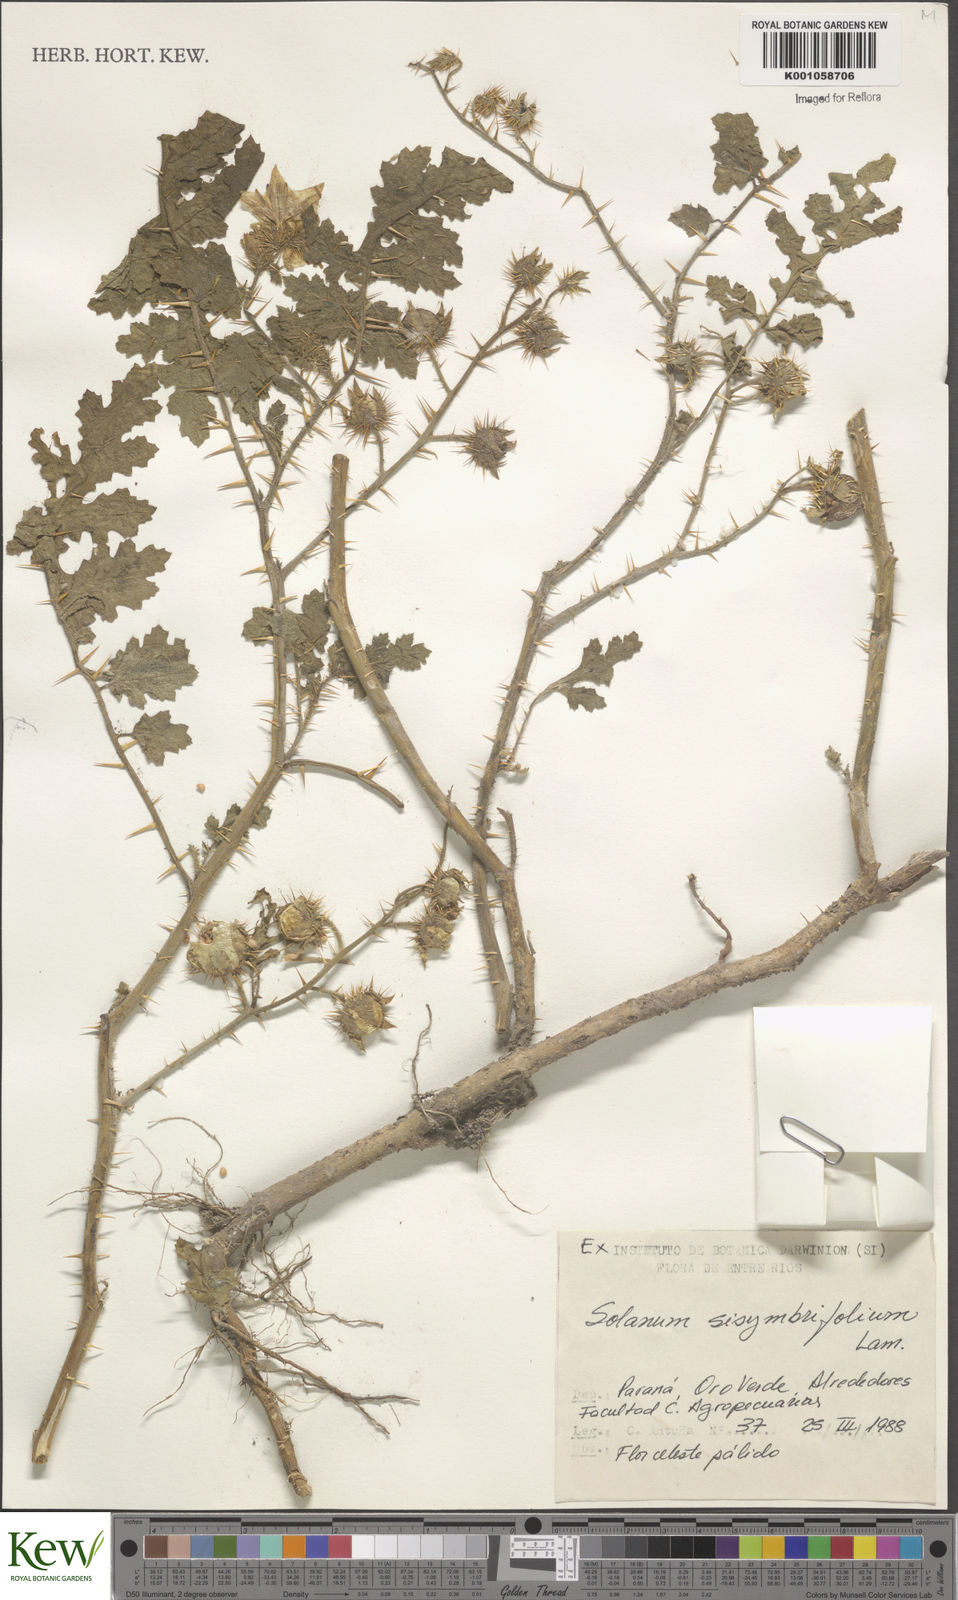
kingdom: Plantae
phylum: Tracheophyta
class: Magnoliopsida
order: Solanales
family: Solanaceae
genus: Solanum
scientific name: Solanum sisymbriifolium
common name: Red buffalo-bur
